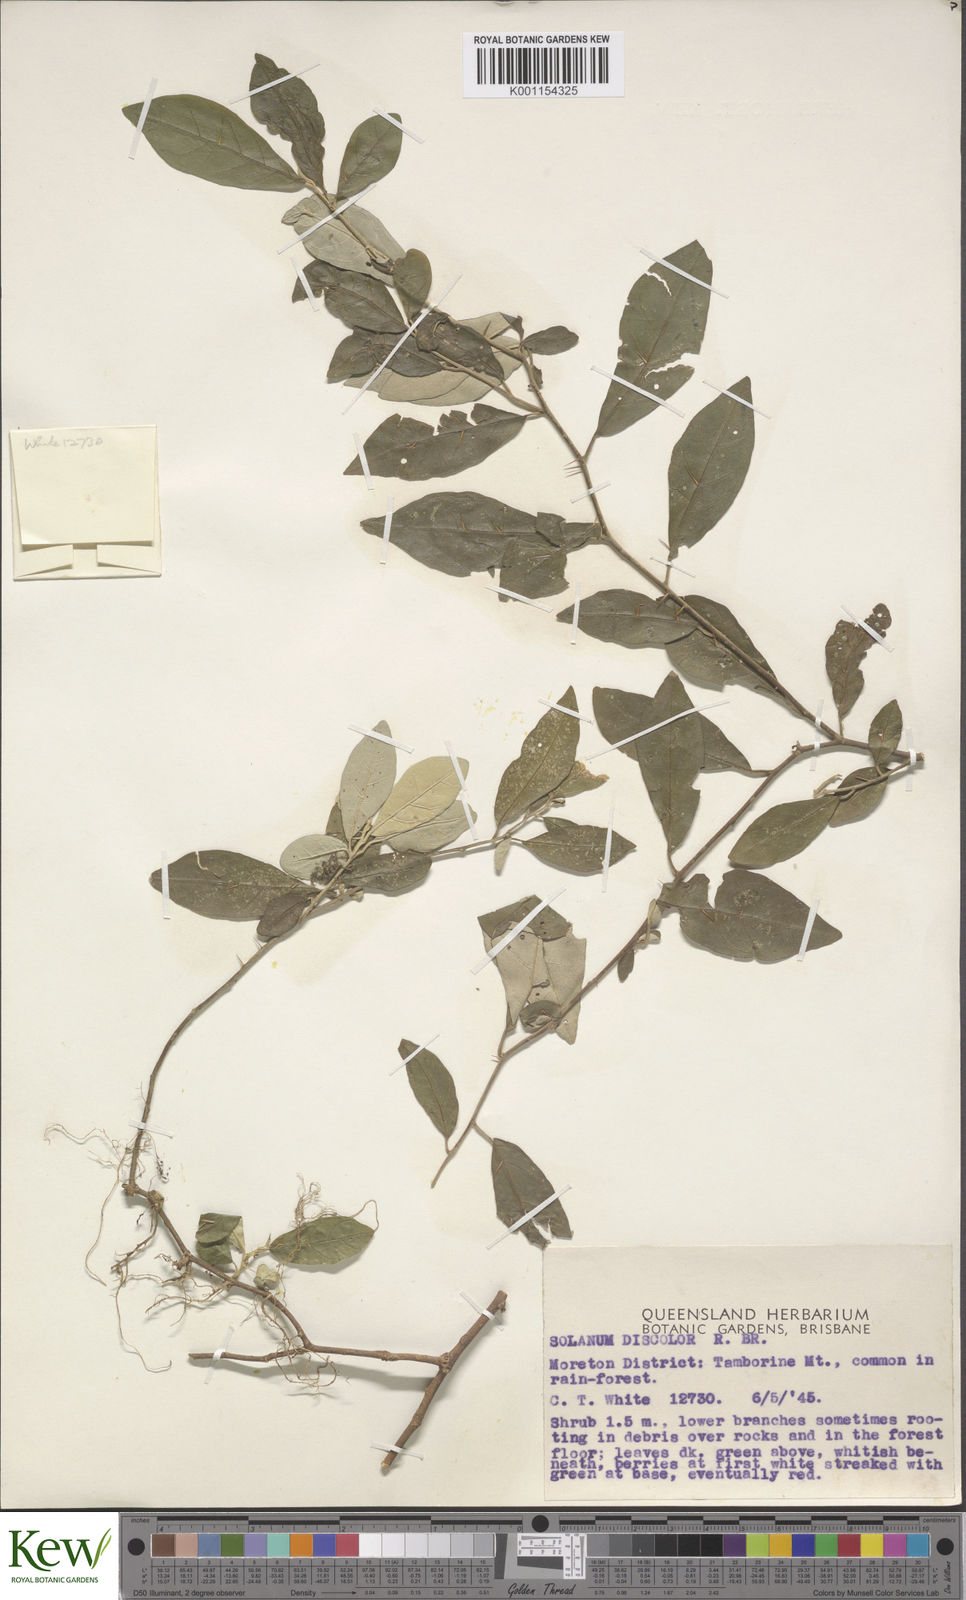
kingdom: Plantae
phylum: Tracheophyta
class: Magnoliopsida
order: Solanales
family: Solanaceae
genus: Solanum
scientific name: Solanum ferocissimum
